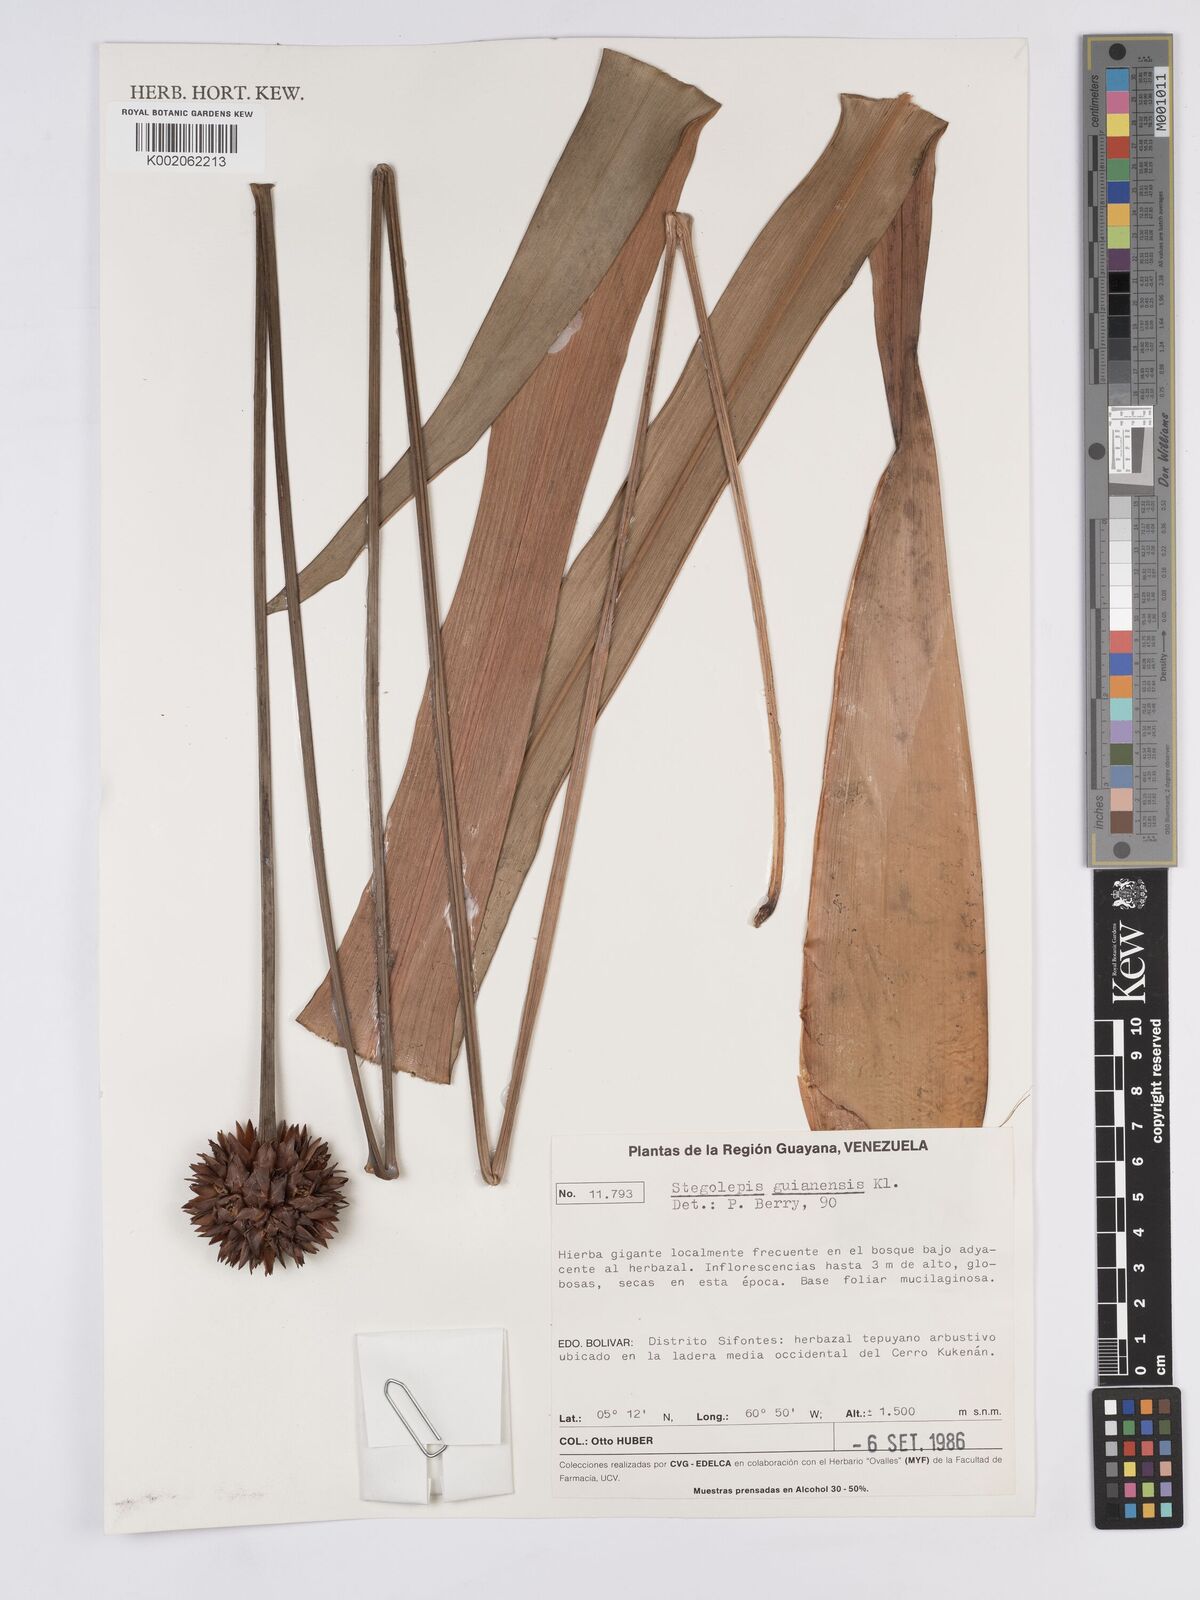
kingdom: Plantae
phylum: Tracheophyta
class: Liliopsida
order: Poales
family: Rapateaceae
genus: Stegolepis
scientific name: Stegolepis guianensis
